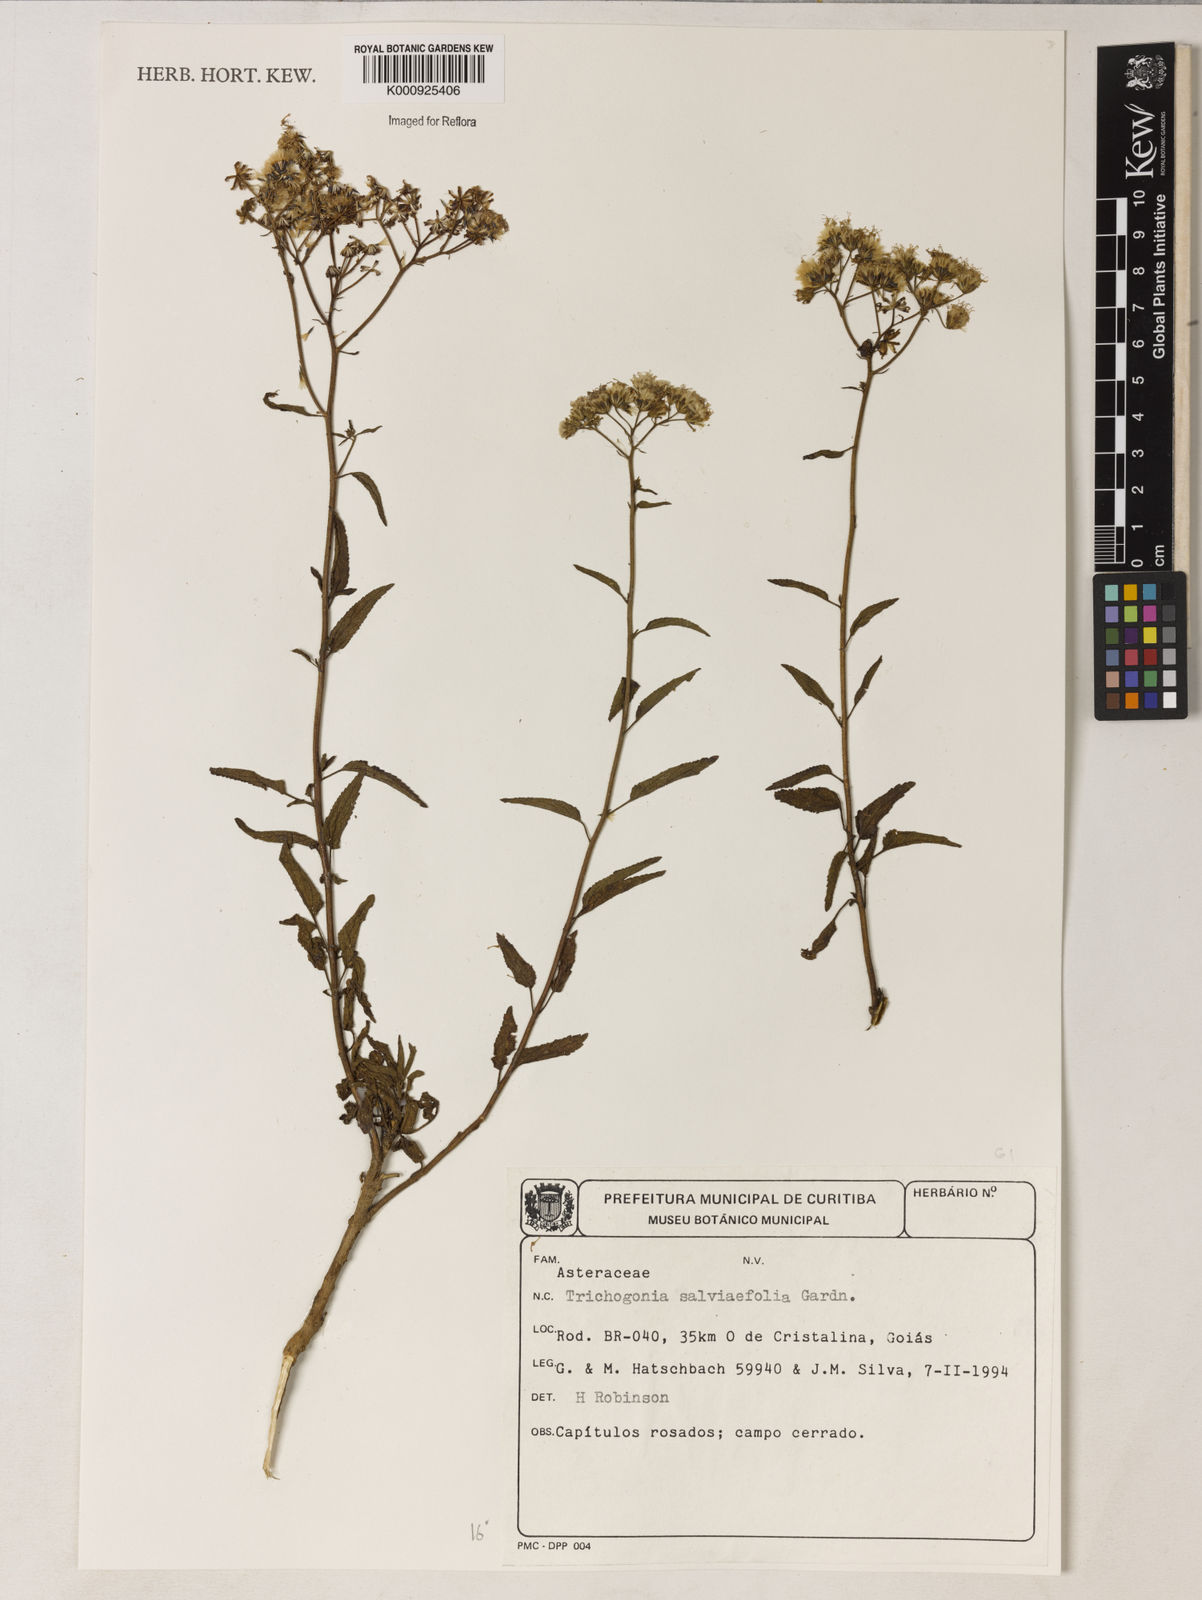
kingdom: Plantae
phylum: Tracheophyta
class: Magnoliopsida
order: Asterales
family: Asteraceae
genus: Trichogonia
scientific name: Trichogonia
